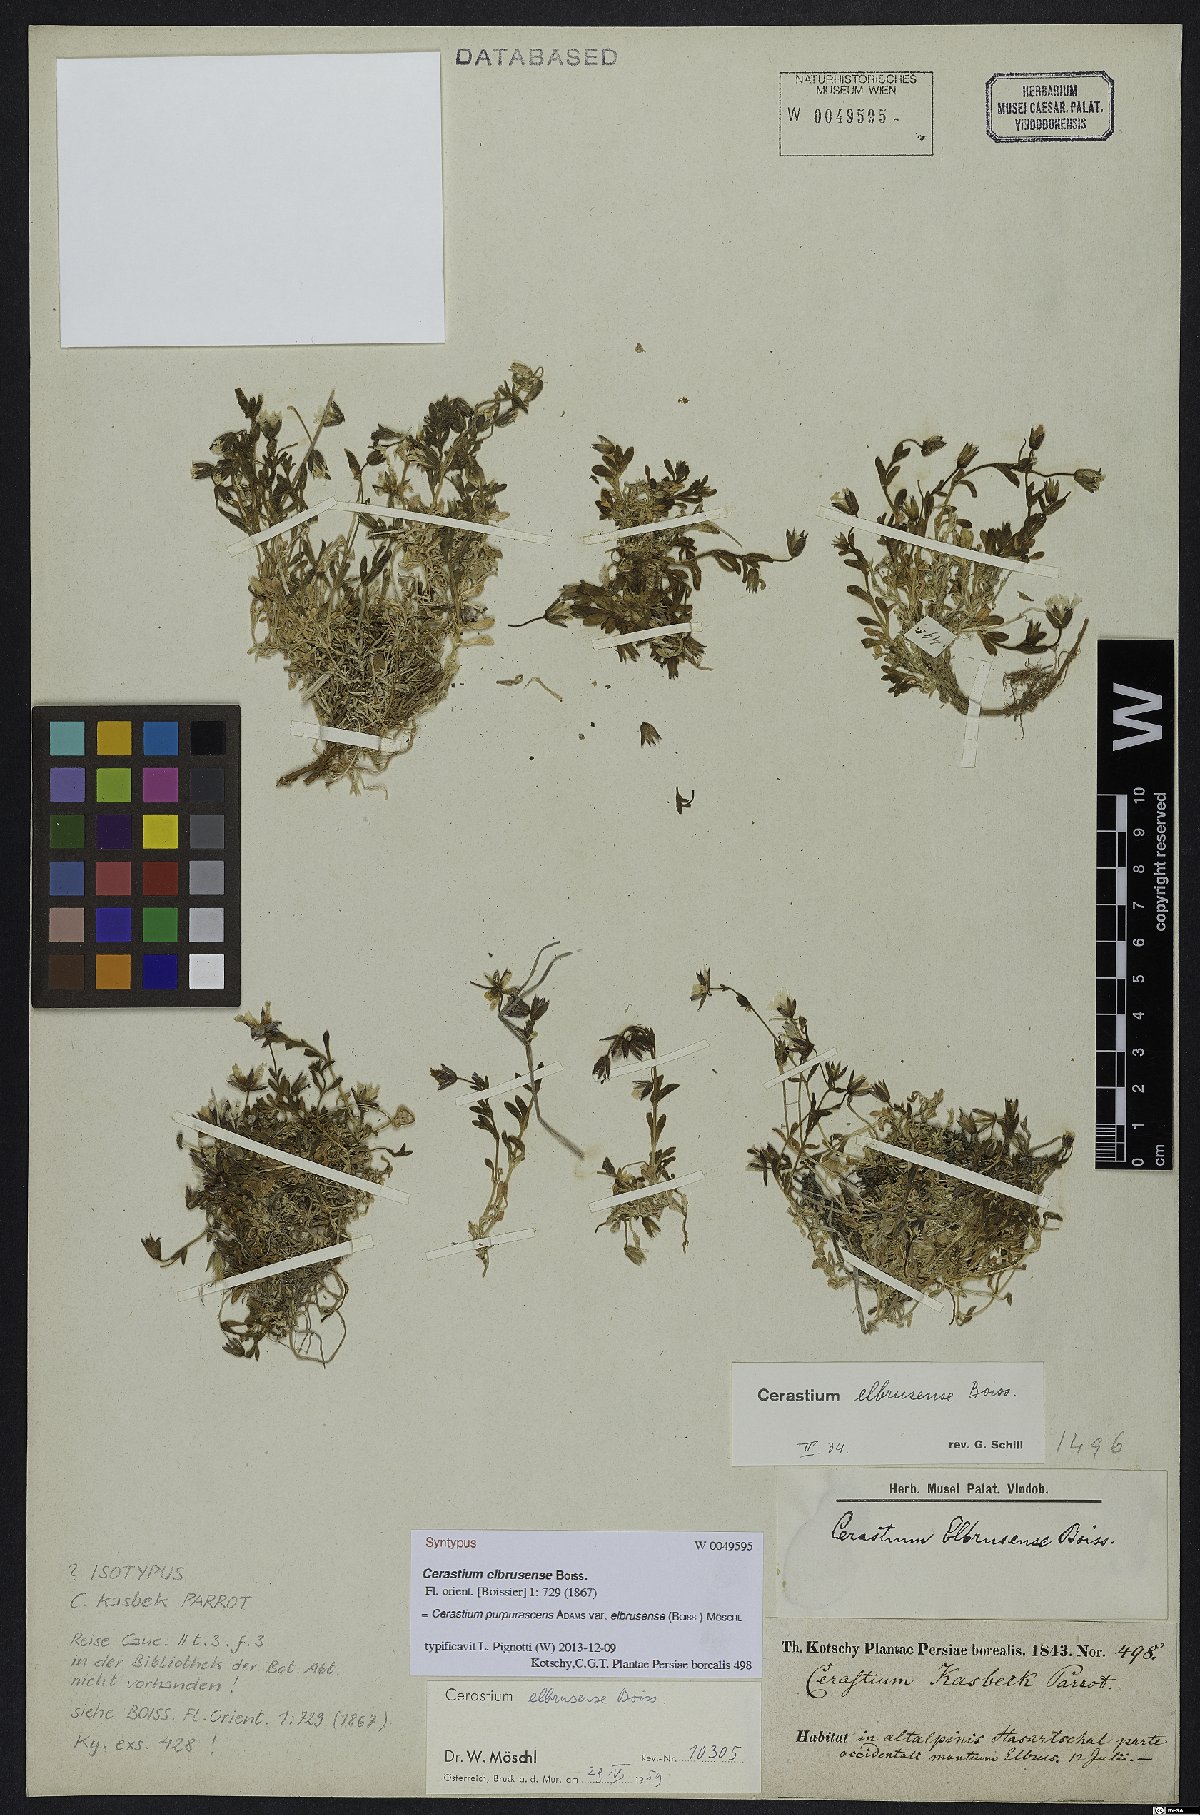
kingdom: Plantae
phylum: Tracheophyta
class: Magnoliopsida
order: Caryophyllales
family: Caryophyllaceae
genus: Cerastium
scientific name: Cerastium elbrusense
